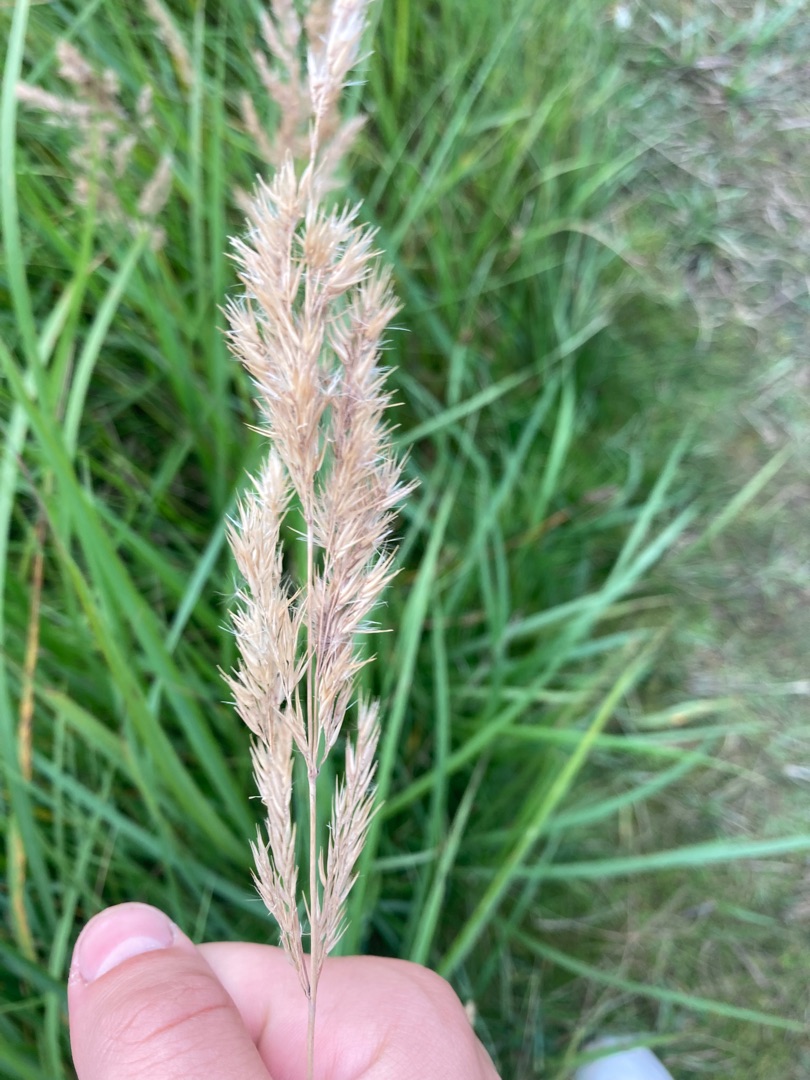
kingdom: Plantae
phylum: Tracheophyta
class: Liliopsida
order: Poales
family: Poaceae
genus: Calamagrostis
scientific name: Calamagrostis epigejos
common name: Bjerg-rørhvene
